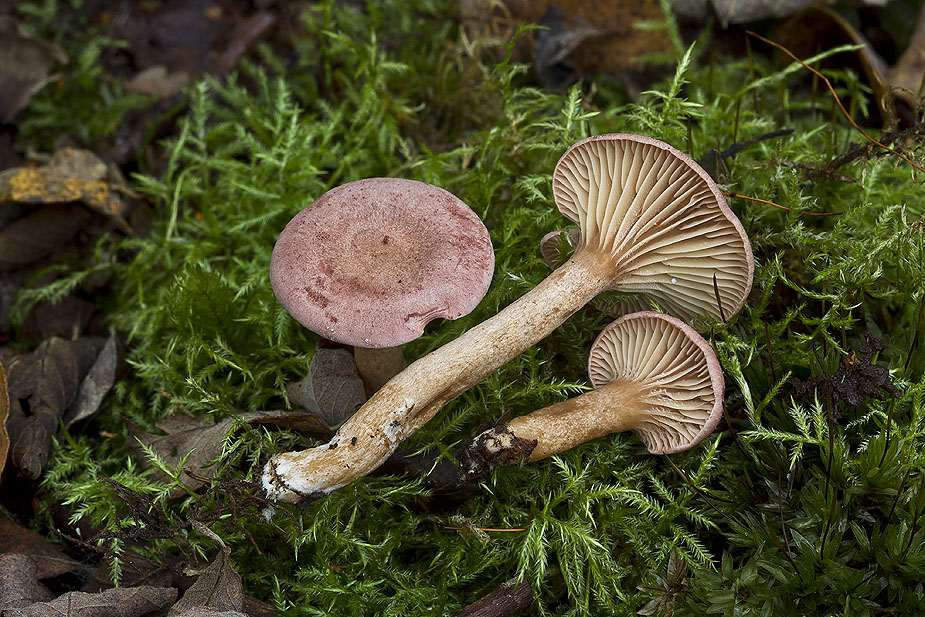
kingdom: Fungi
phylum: Basidiomycota
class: Agaricomycetes
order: Russulales
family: Russulaceae
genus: Lactarius
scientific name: Lactarius lilacinus
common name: lilla mælkehat
